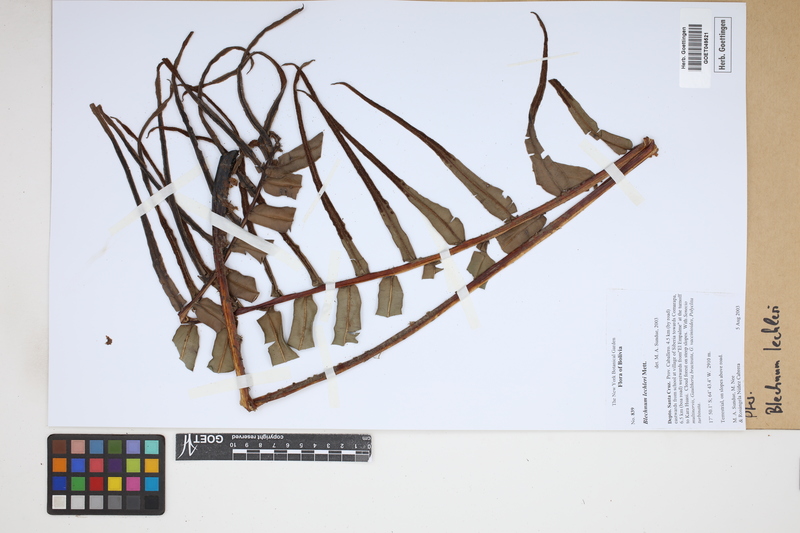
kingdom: Plantae
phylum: Tracheophyta
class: Polypodiopsida
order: Polypodiales
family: Blechnaceae
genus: Parablechnum
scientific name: Parablechnum lechleri
